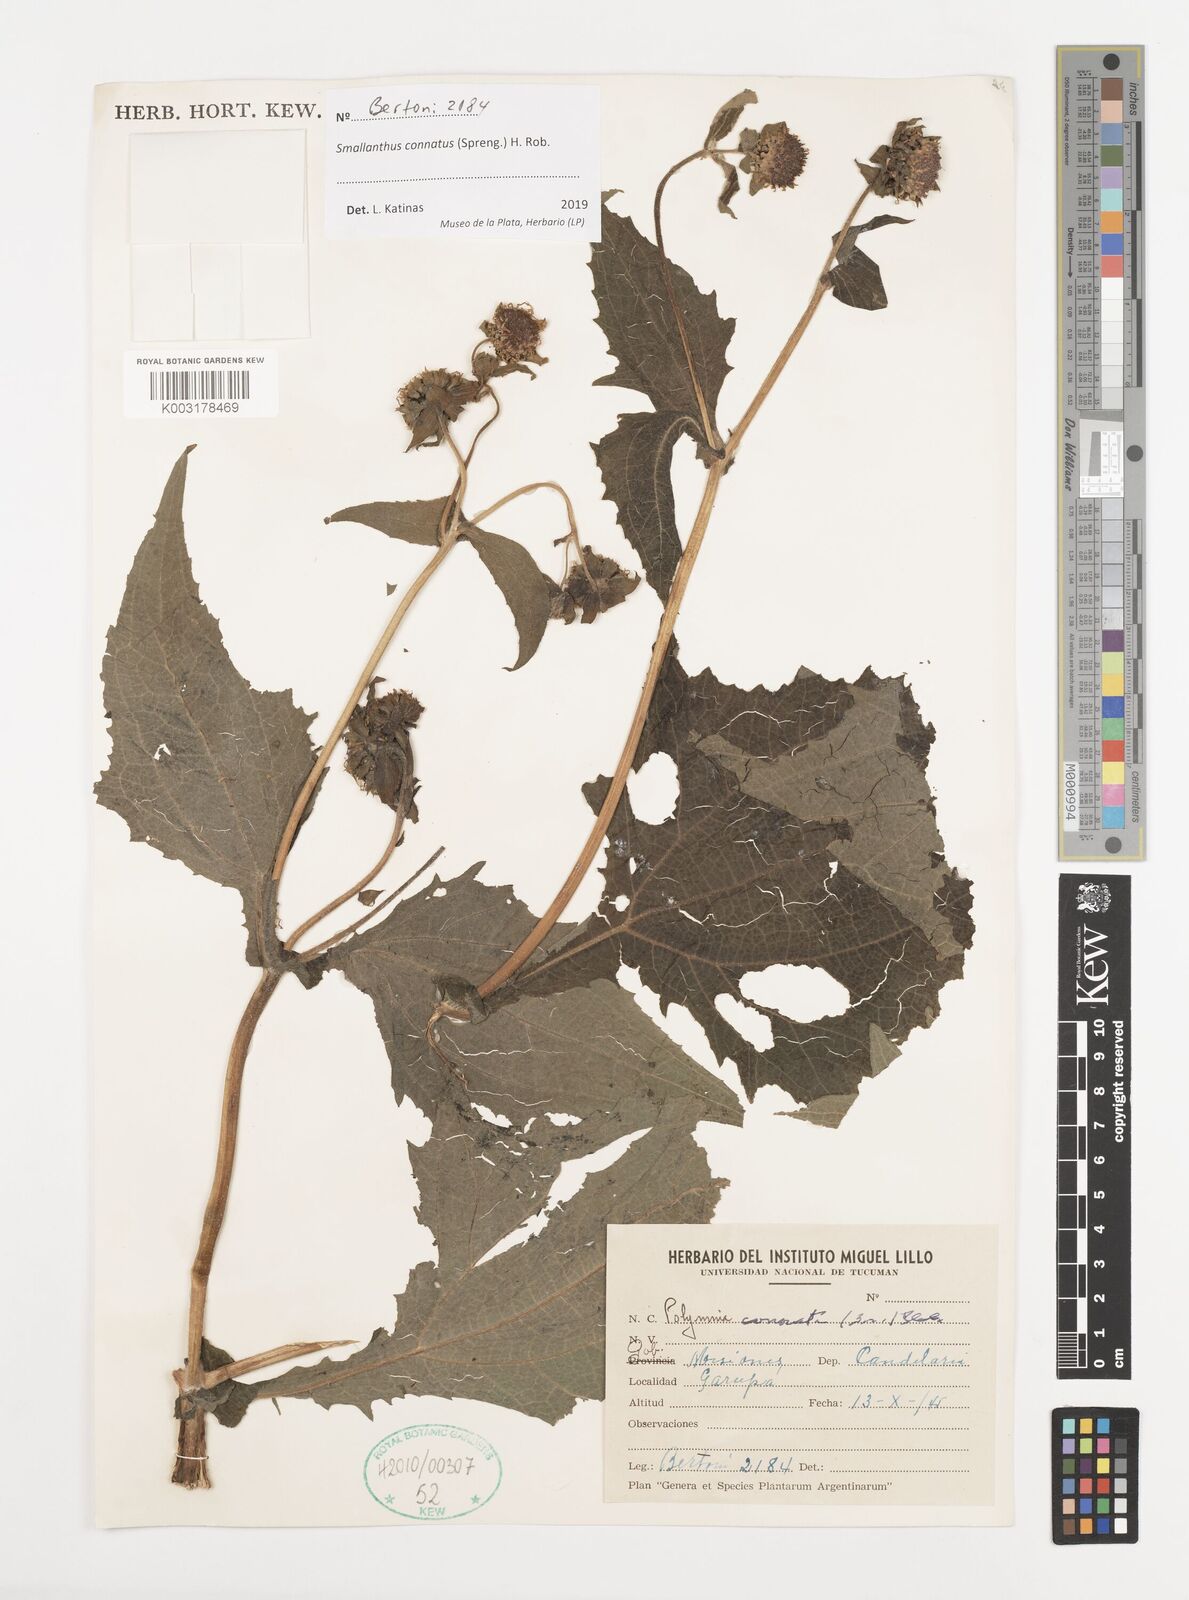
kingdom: Plantae
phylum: Tracheophyta
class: Magnoliopsida
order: Asterales
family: Asteraceae
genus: Smallanthus
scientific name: Smallanthus connatus
